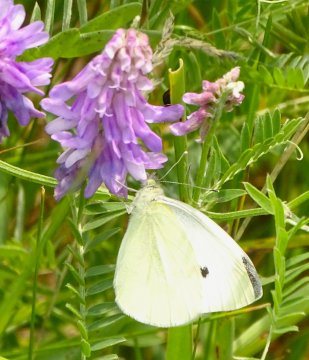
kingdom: Animalia
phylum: Arthropoda
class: Insecta
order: Lepidoptera
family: Pieridae
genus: Pieris
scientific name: Pieris rapae
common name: Cabbage White
